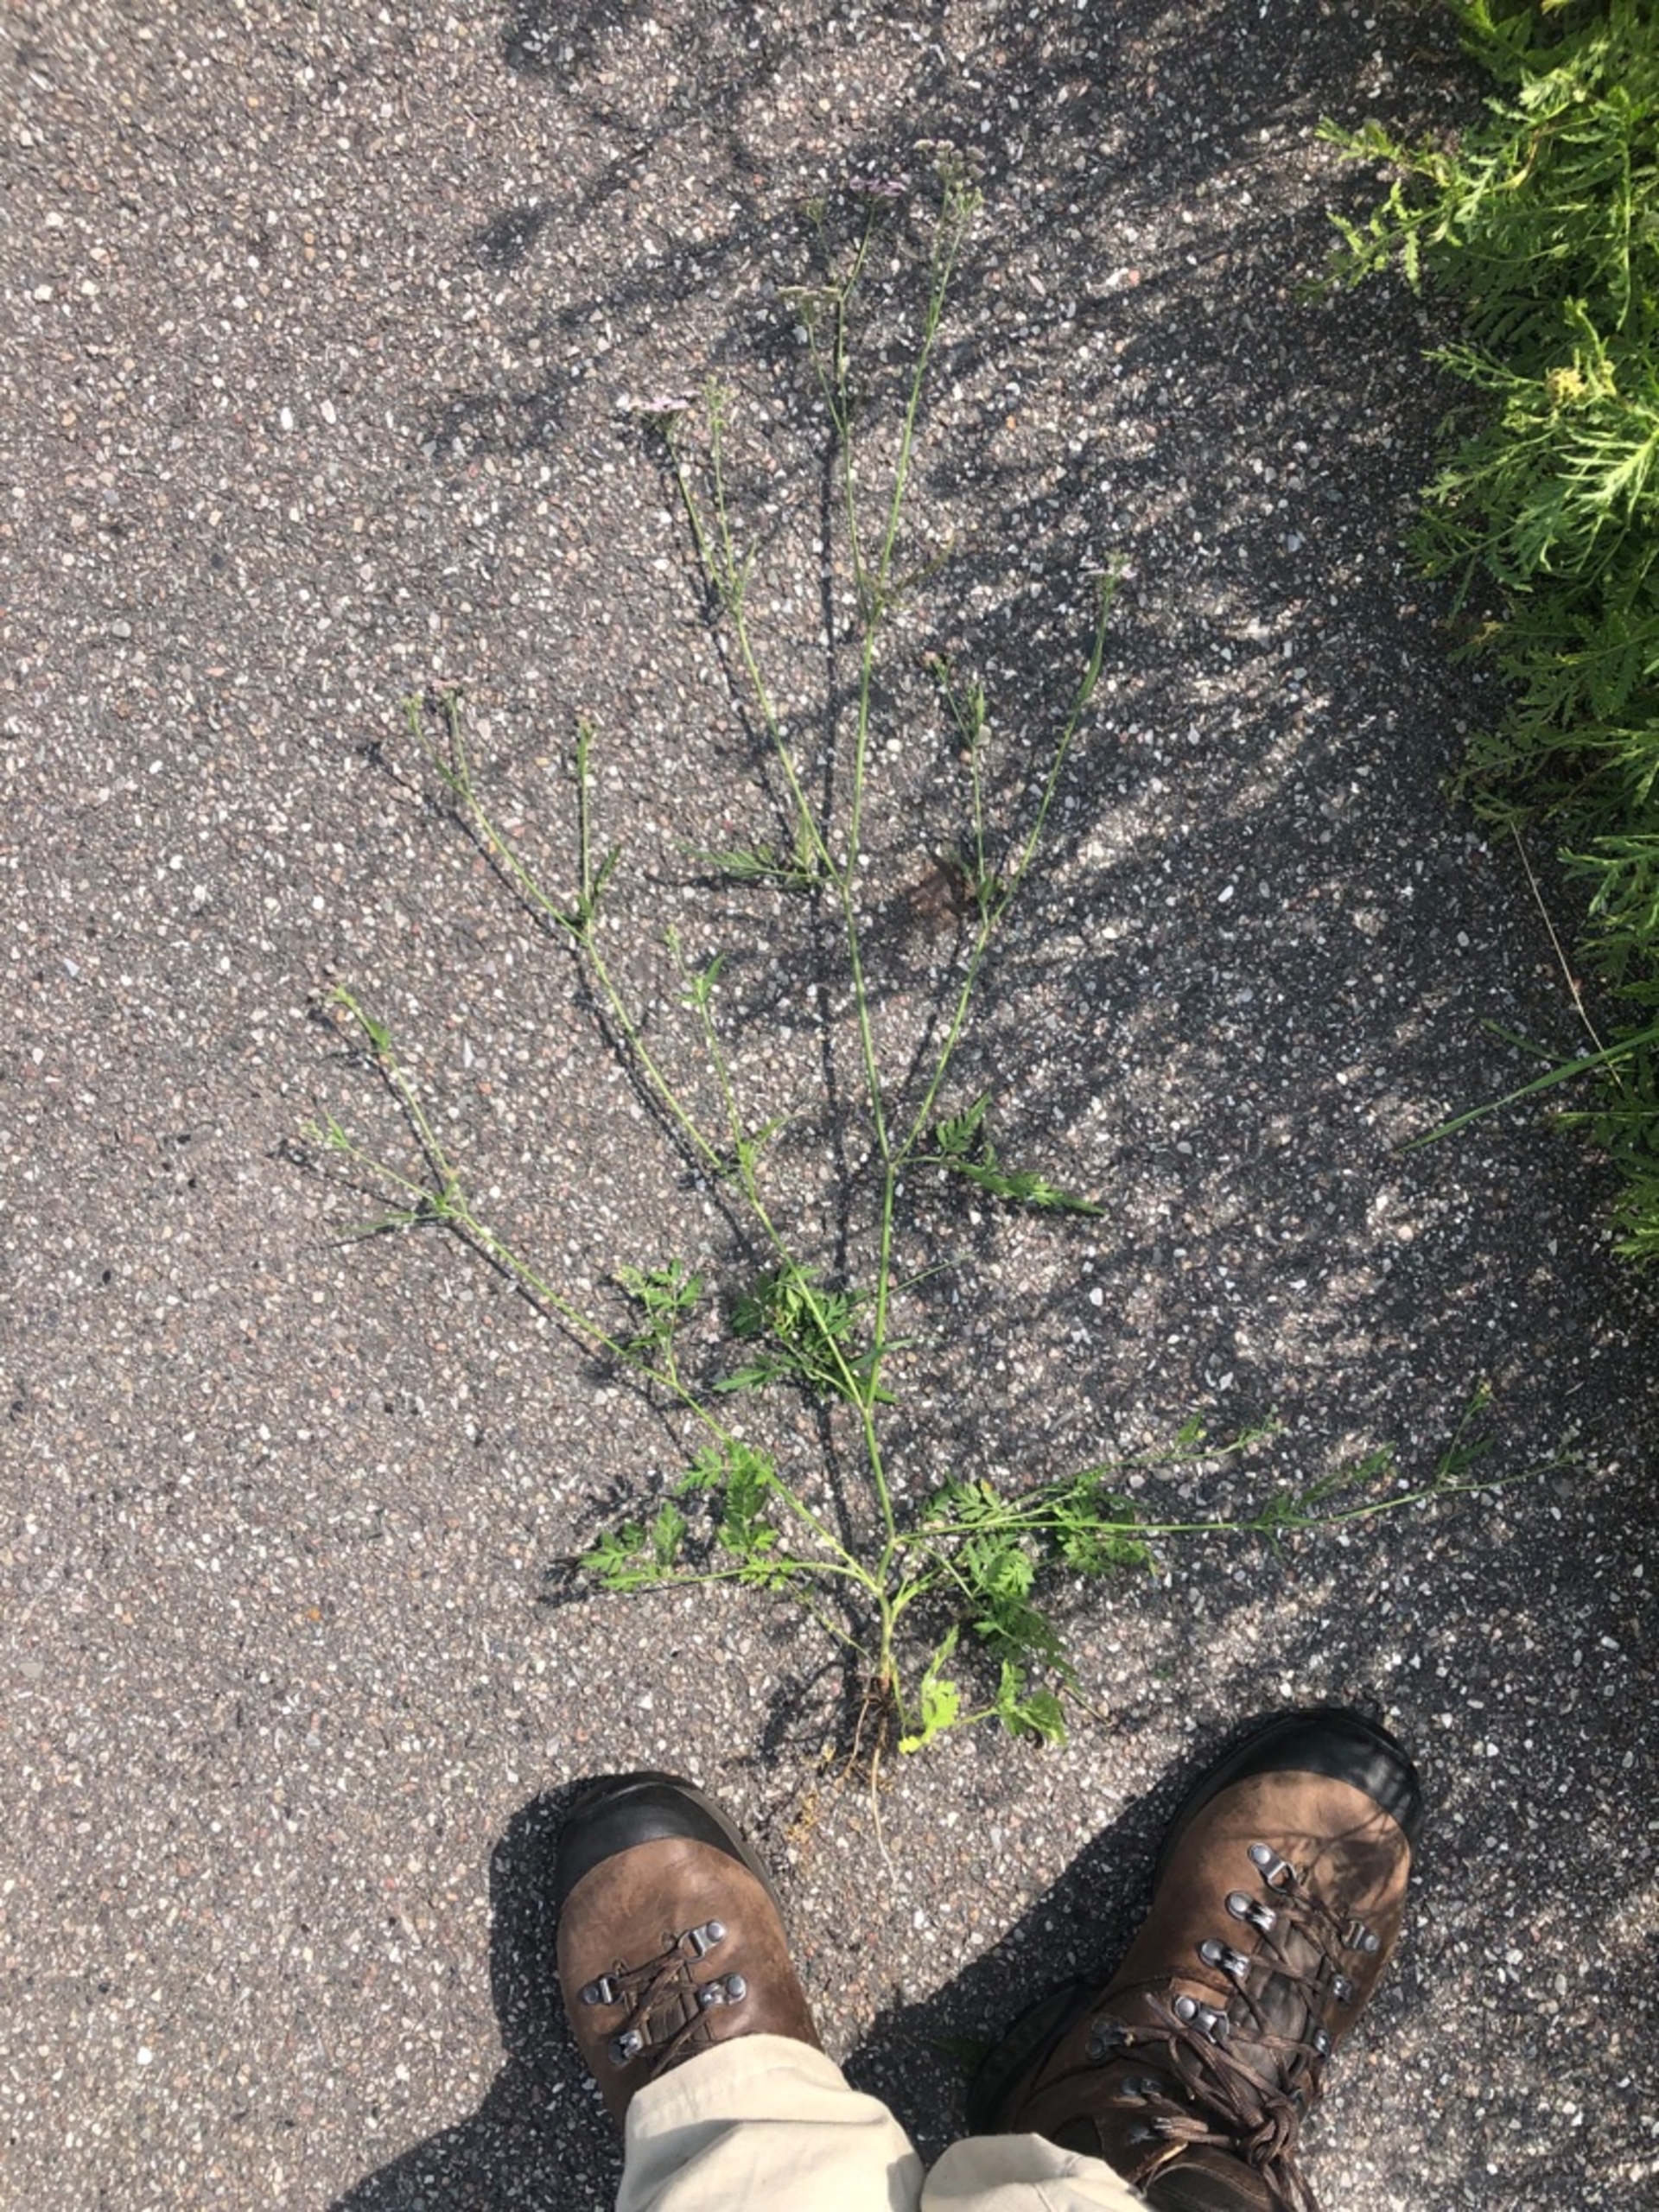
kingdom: Plantae
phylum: Tracheophyta
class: Magnoliopsida
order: Apiales
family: Apiaceae
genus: Torilis
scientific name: Torilis japonica
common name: Hvas randfrø
